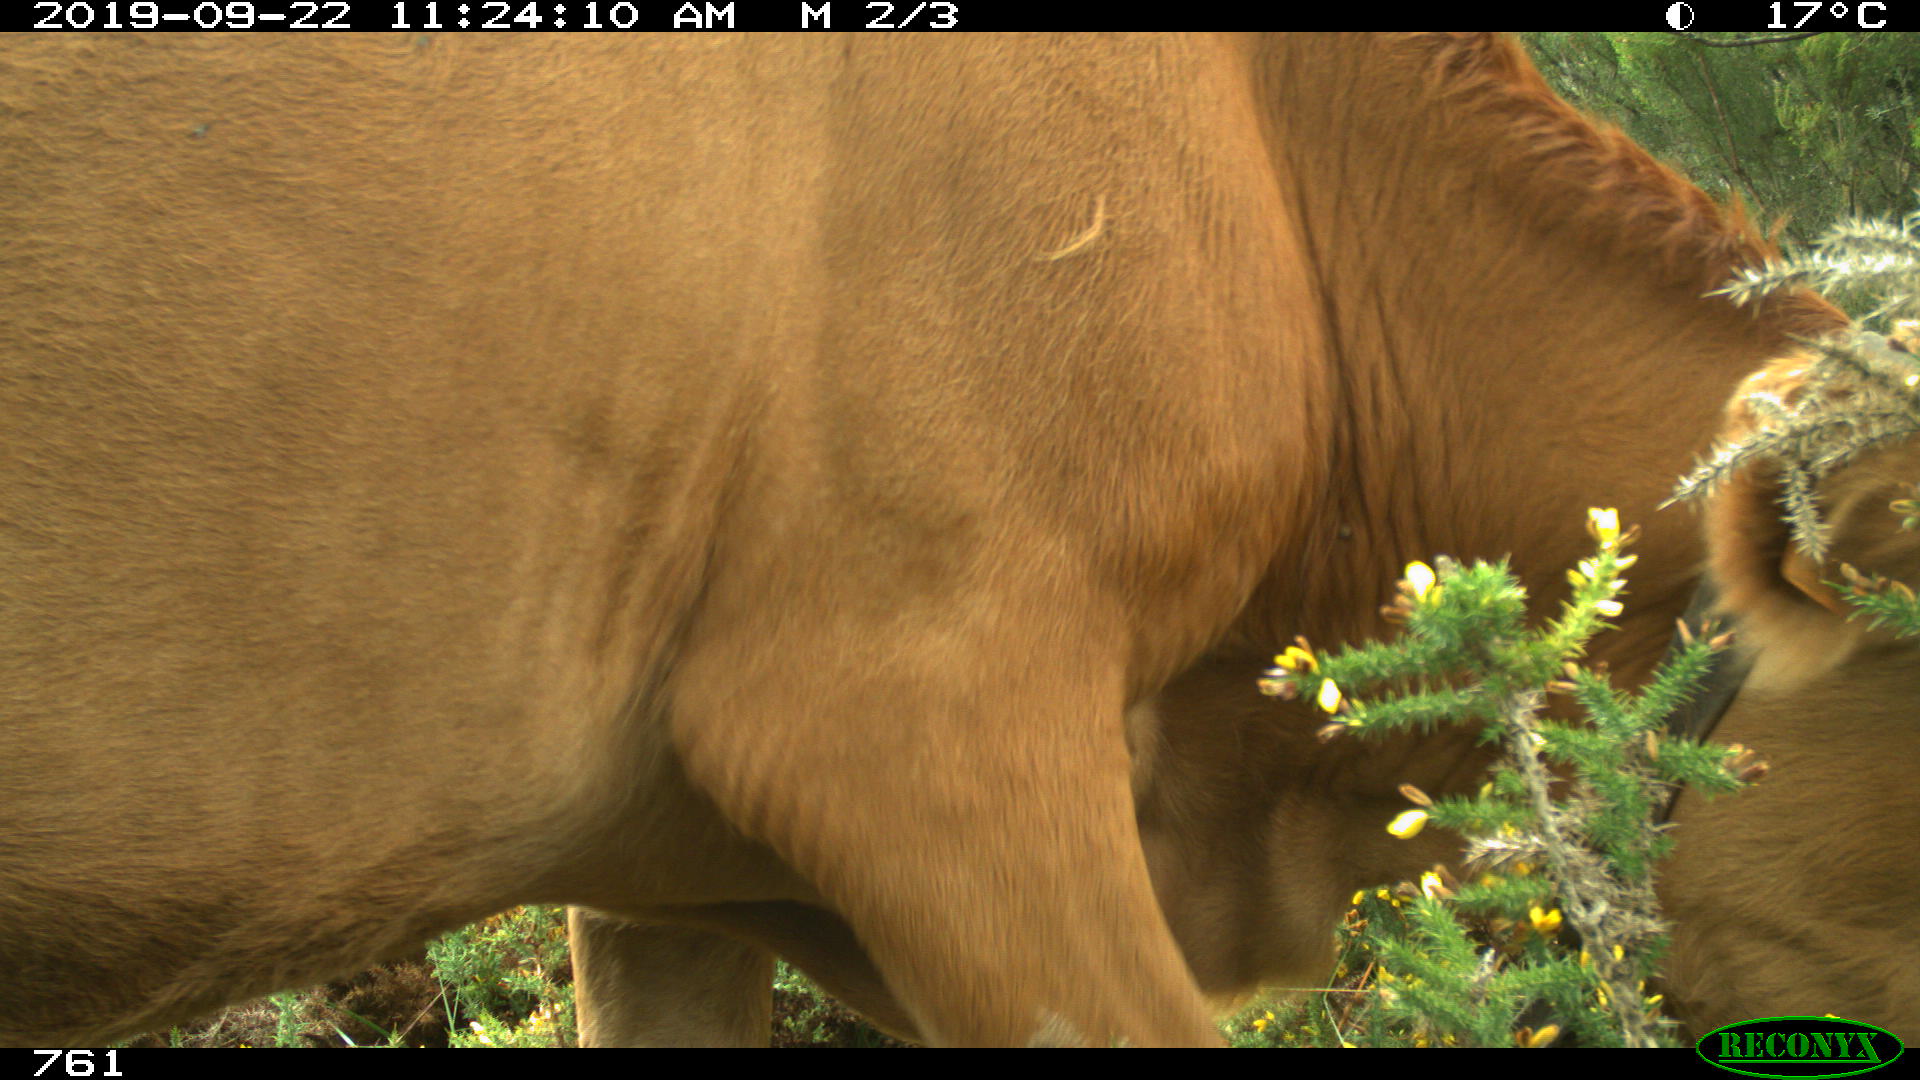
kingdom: Animalia
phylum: Chordata
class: Mammalia
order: Artiodactyla
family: Bovidae
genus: Bos
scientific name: Bos taurus
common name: Domesticated cattle
